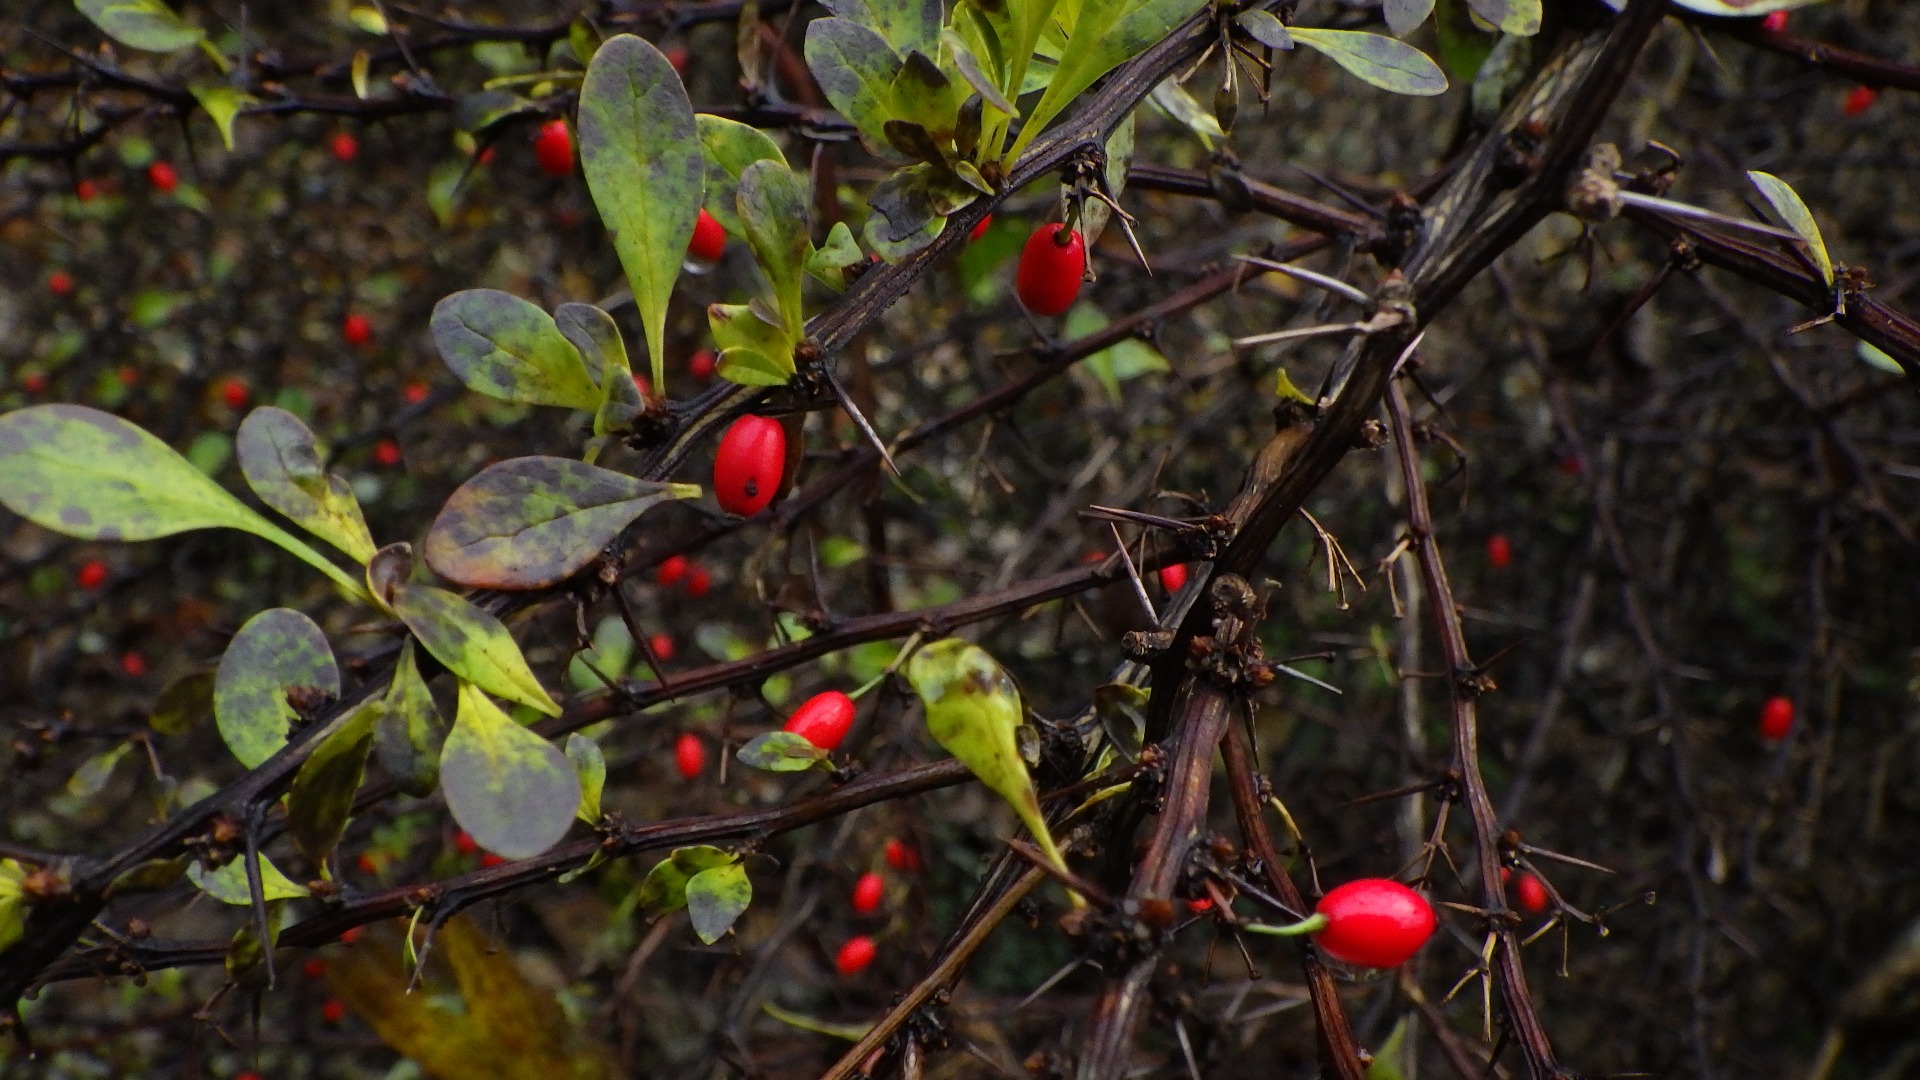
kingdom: Plantae
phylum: Tracheophyta
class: Magnoliopsida
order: Ranunculales
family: Berberidaceae
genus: Berberis
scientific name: Berberis thunbergii
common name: Hæk-berberis
